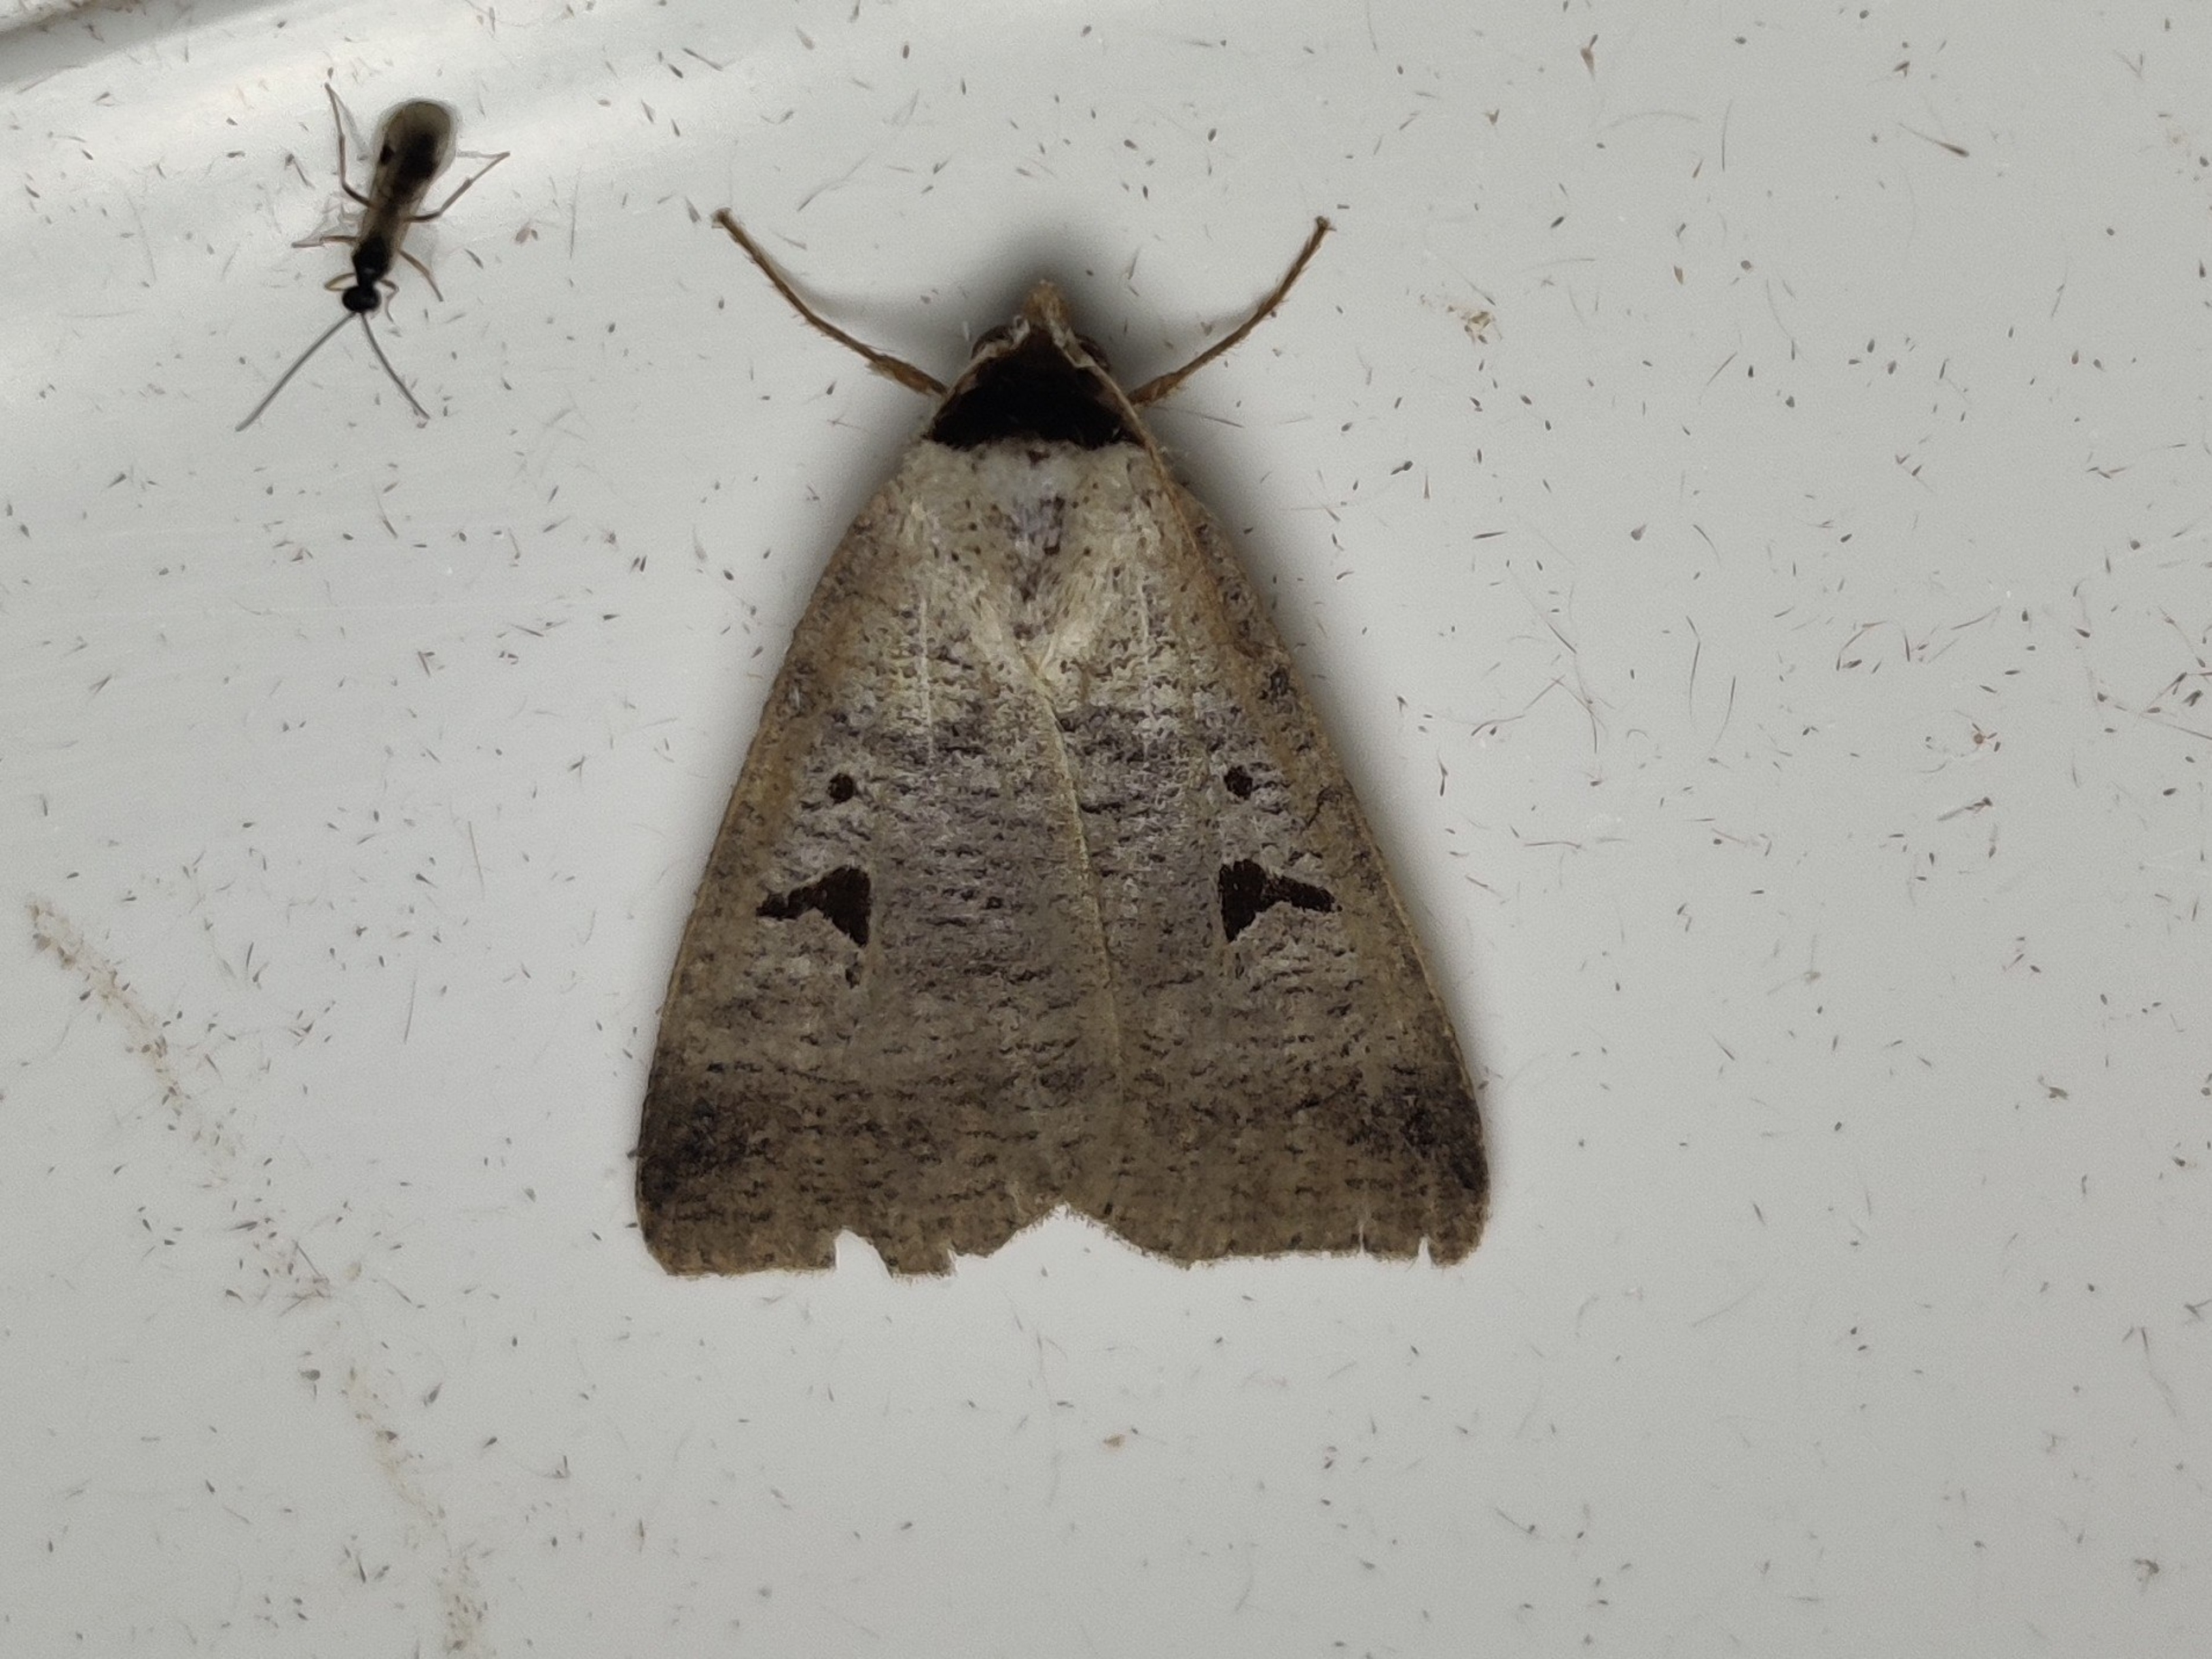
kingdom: Animalia
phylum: Arthropoda
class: Insecta
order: Lepidoptera
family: Erebidae
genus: Lygephila
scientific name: Lygephila pastinum
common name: Vikkeugle
